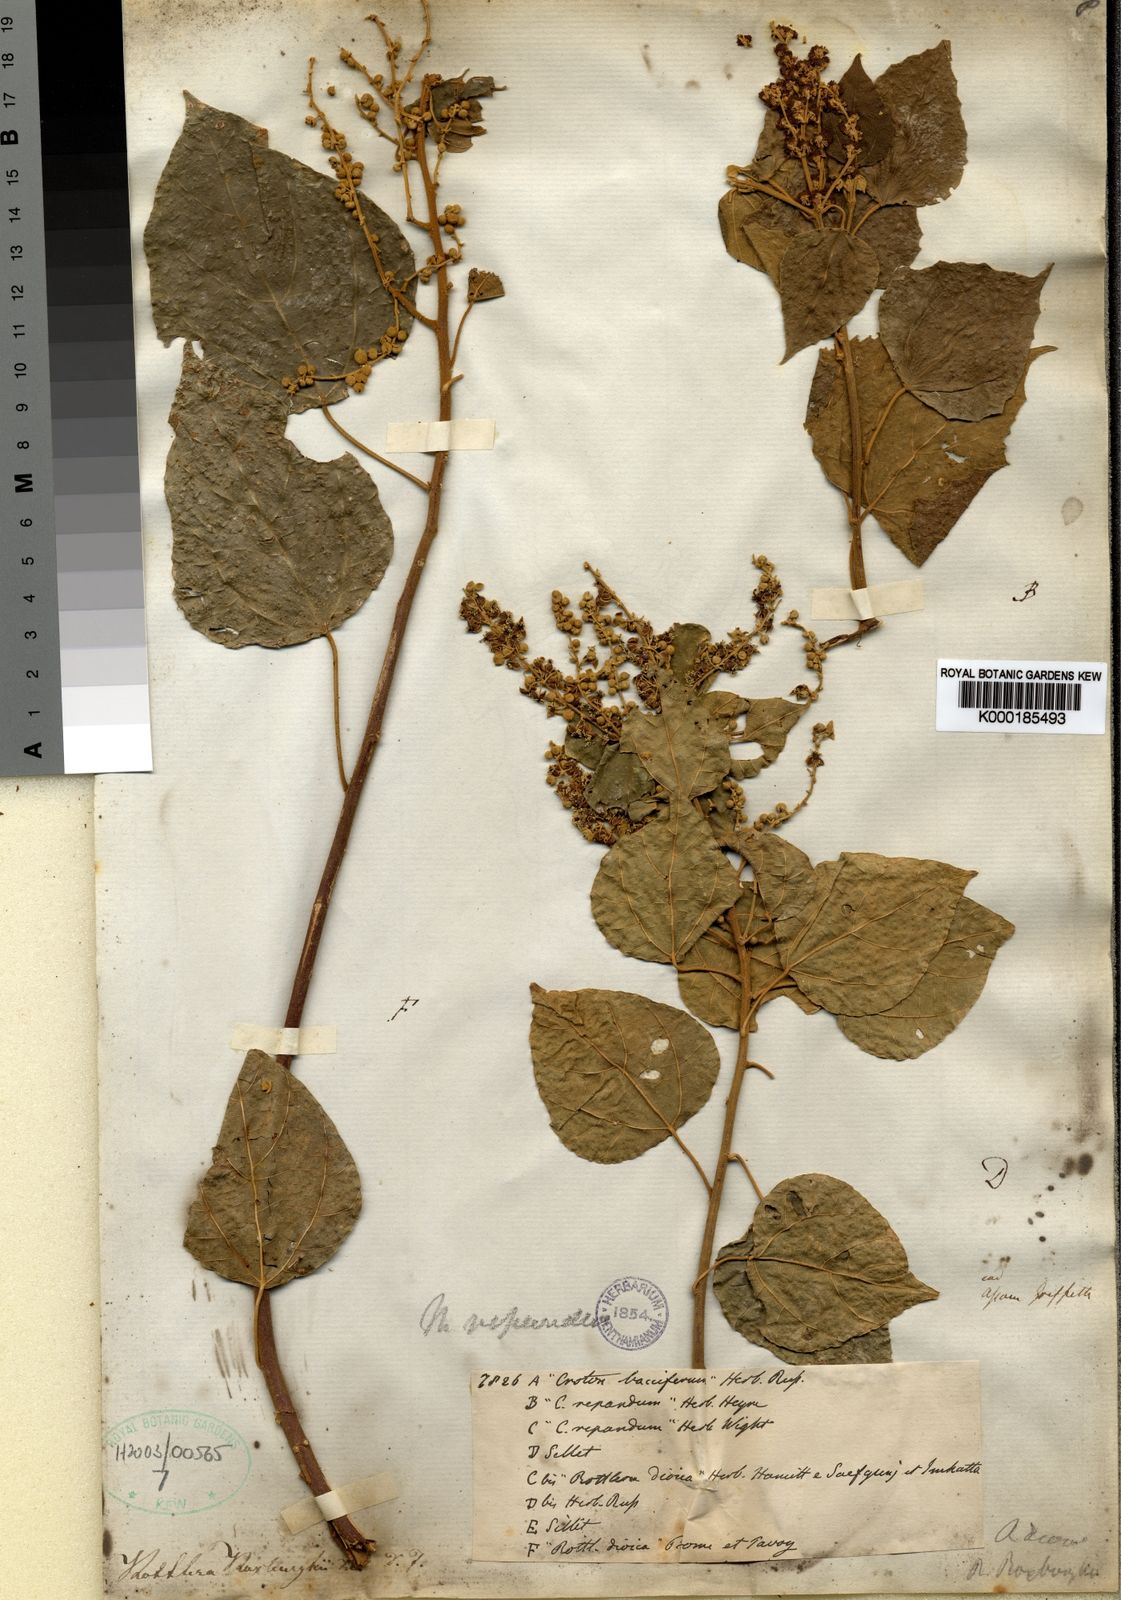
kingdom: Plantae
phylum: Tracheophyta
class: Magnoliopsida
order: Malpighiales
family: Euphorbiaceae
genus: Mallotus
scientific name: Mallotus
